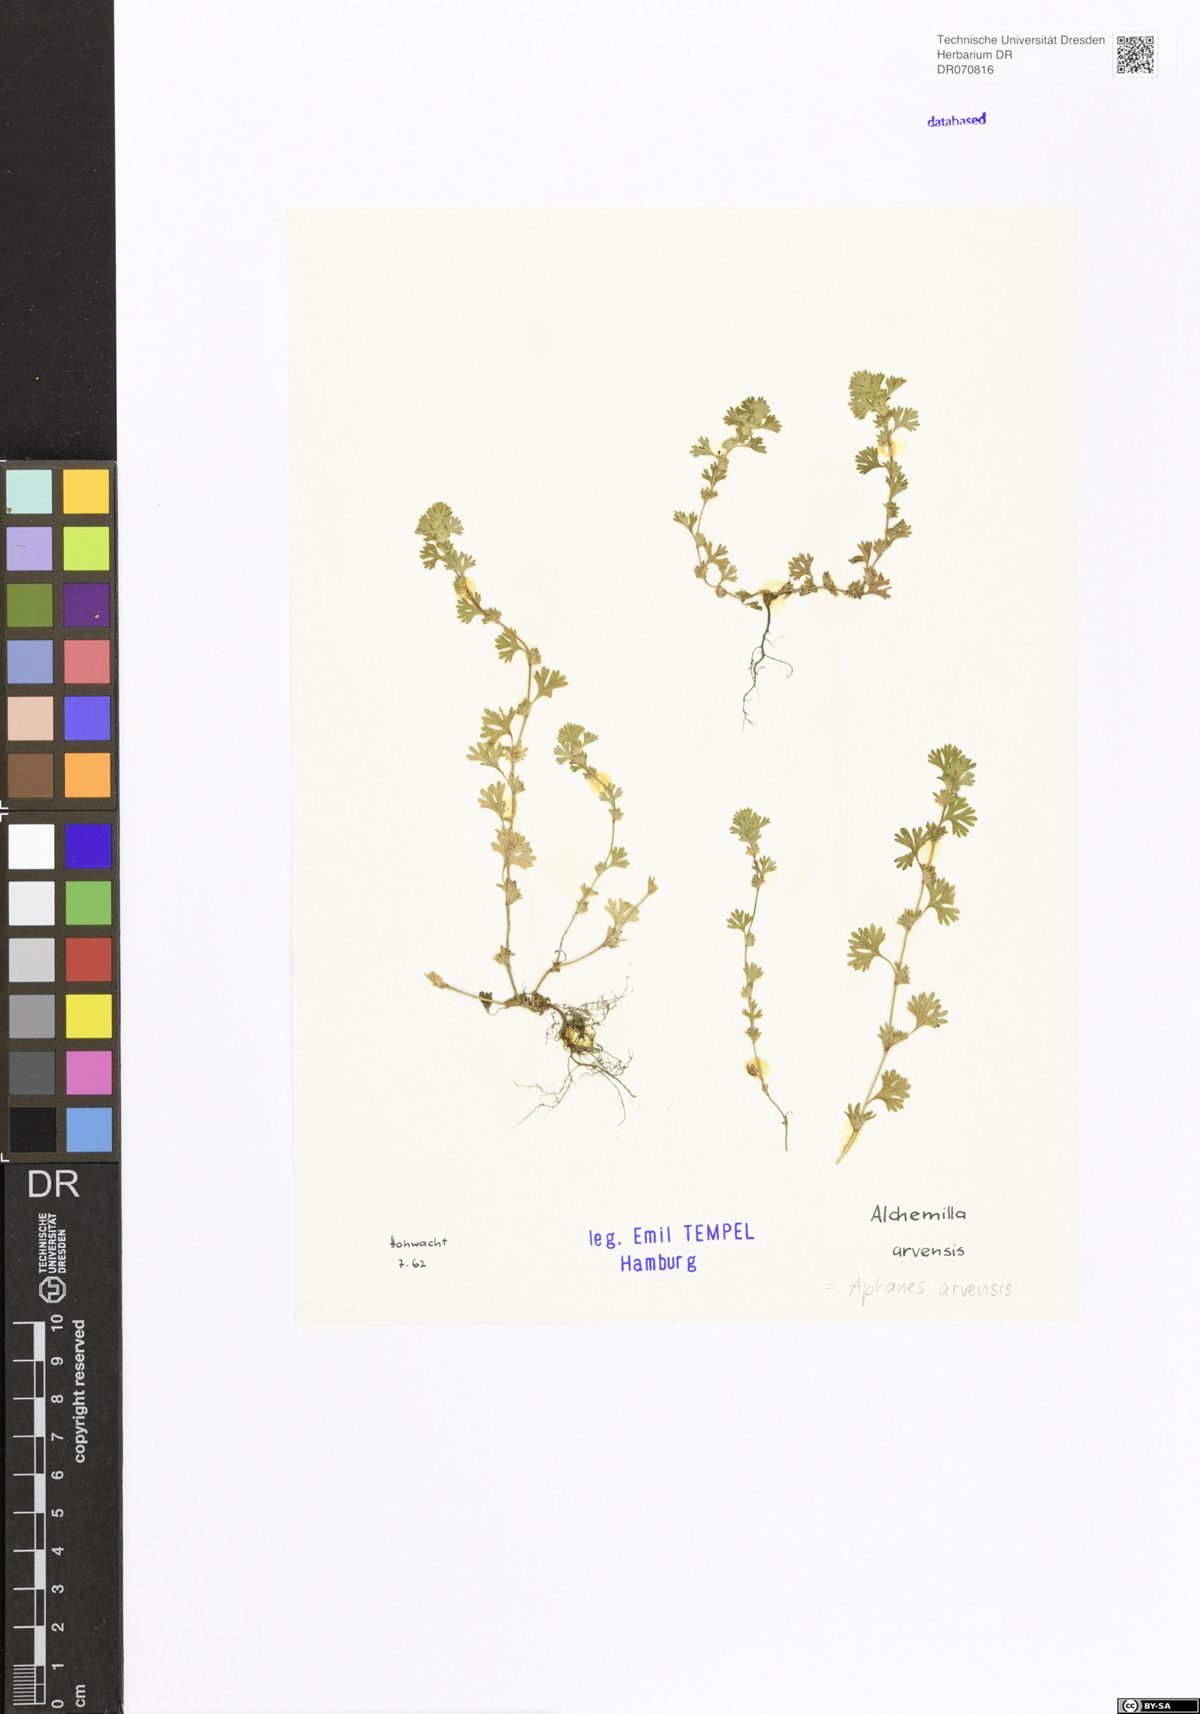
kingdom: Plantae
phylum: Tracheophyta
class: Magnoliopsida
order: Rosales
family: Rosaceae
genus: Aphanes
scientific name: Aphanes arvensis
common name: Parsley-piert
